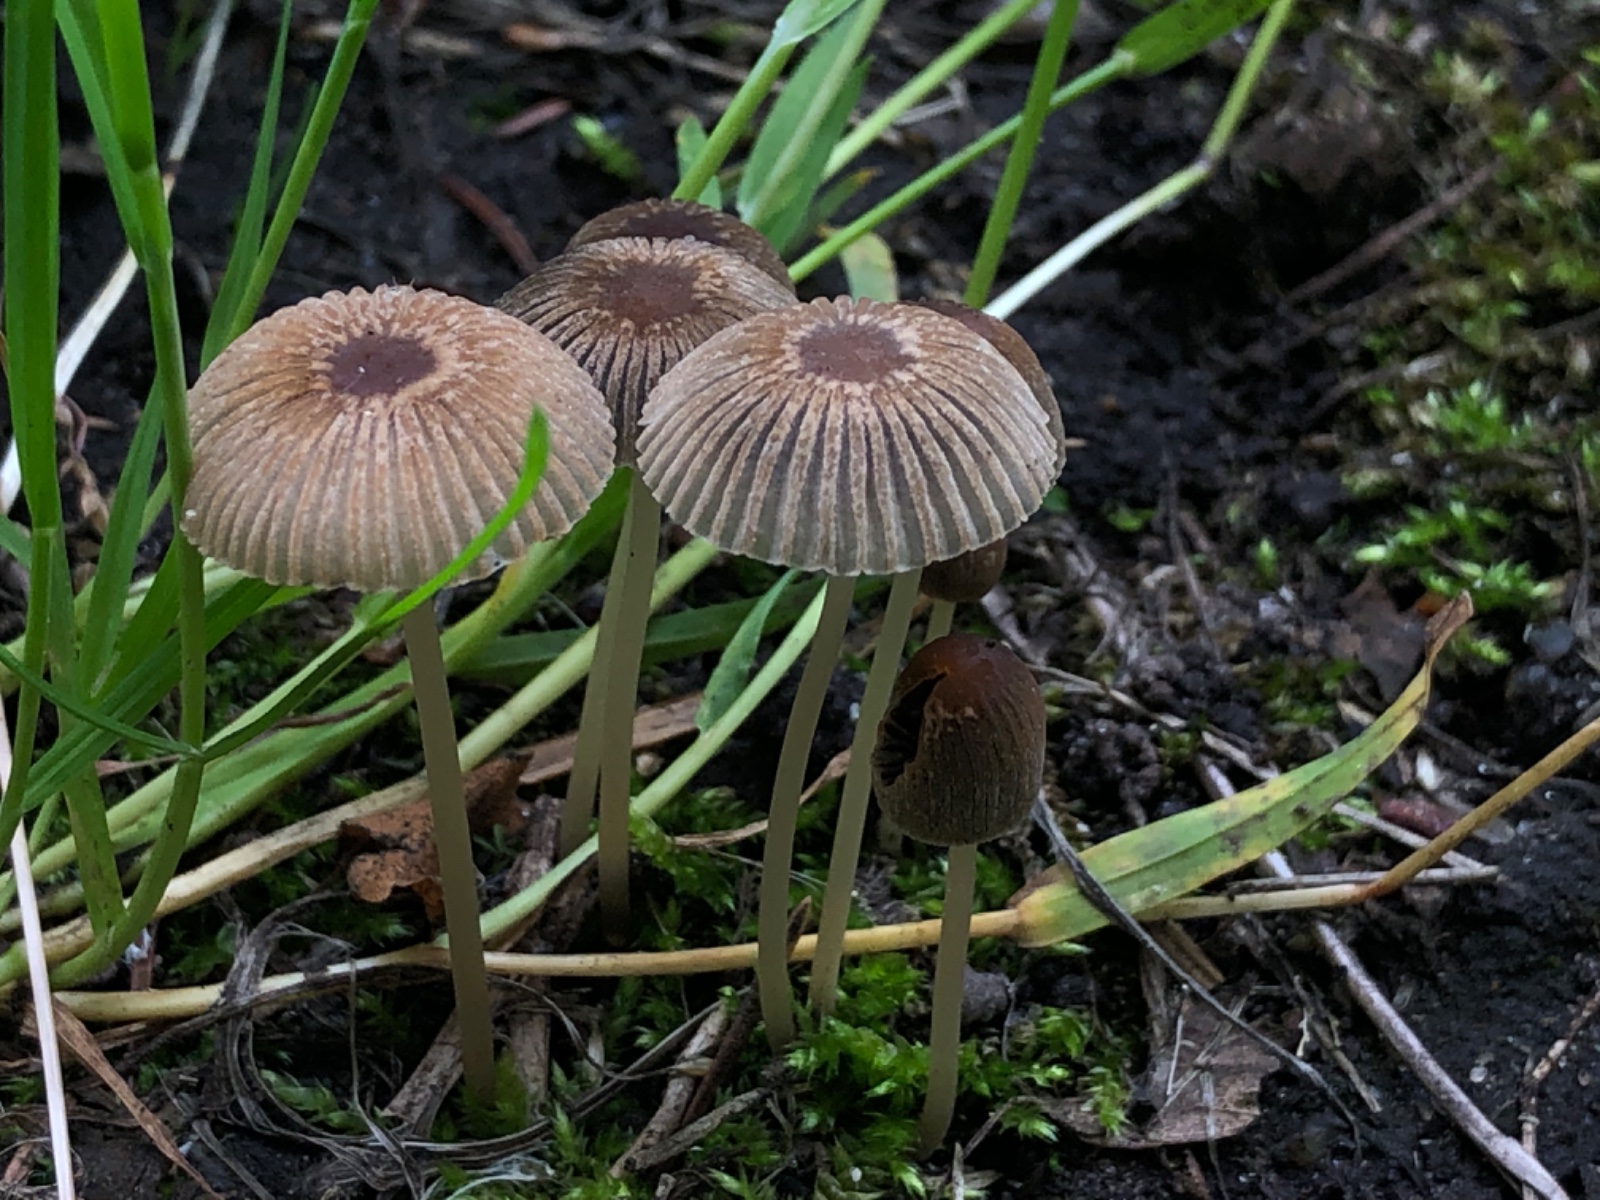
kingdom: Fungi
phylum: Basidiomycota
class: Agaricomycetes
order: Agaricales
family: Psathyrellaceae
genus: Parasola
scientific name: Parasola
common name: hjulhat
